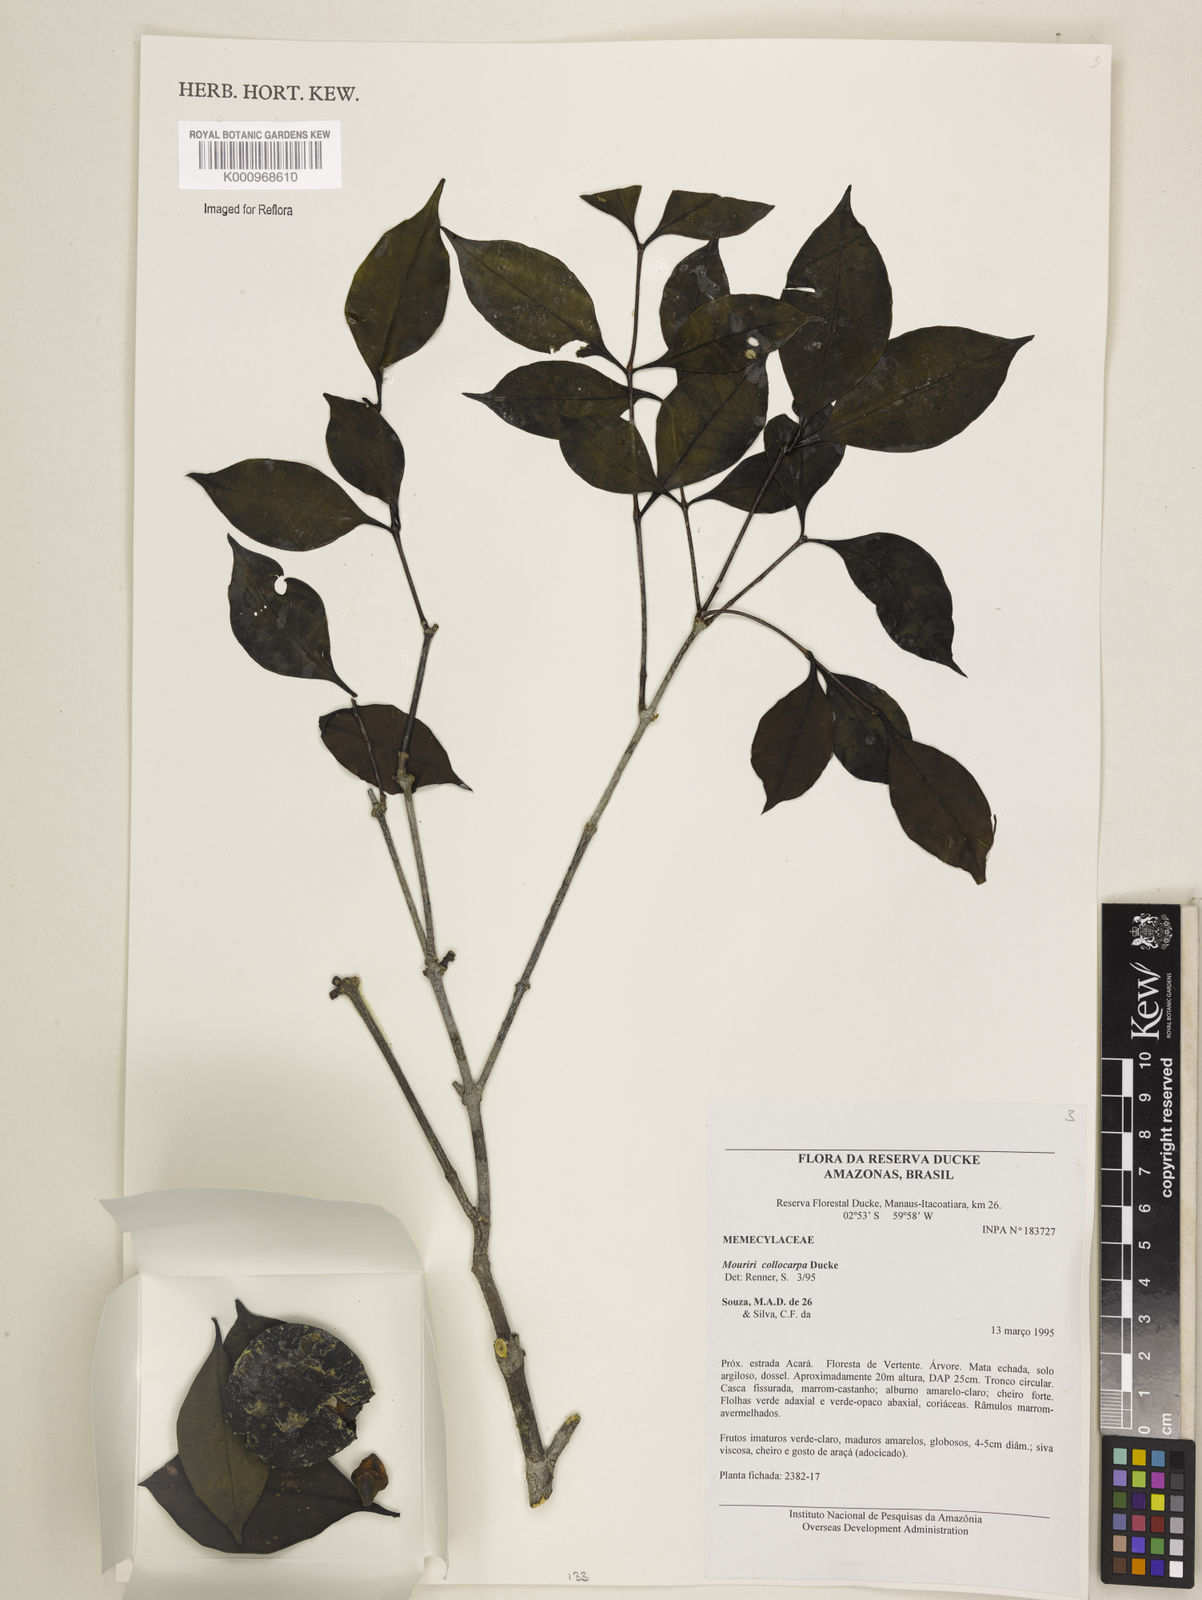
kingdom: Plantae
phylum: Tracheophyta
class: Magnoliopsida
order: Myrtales
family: Melastomataceae
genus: Mouriri
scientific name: Mouriri collocarpa
